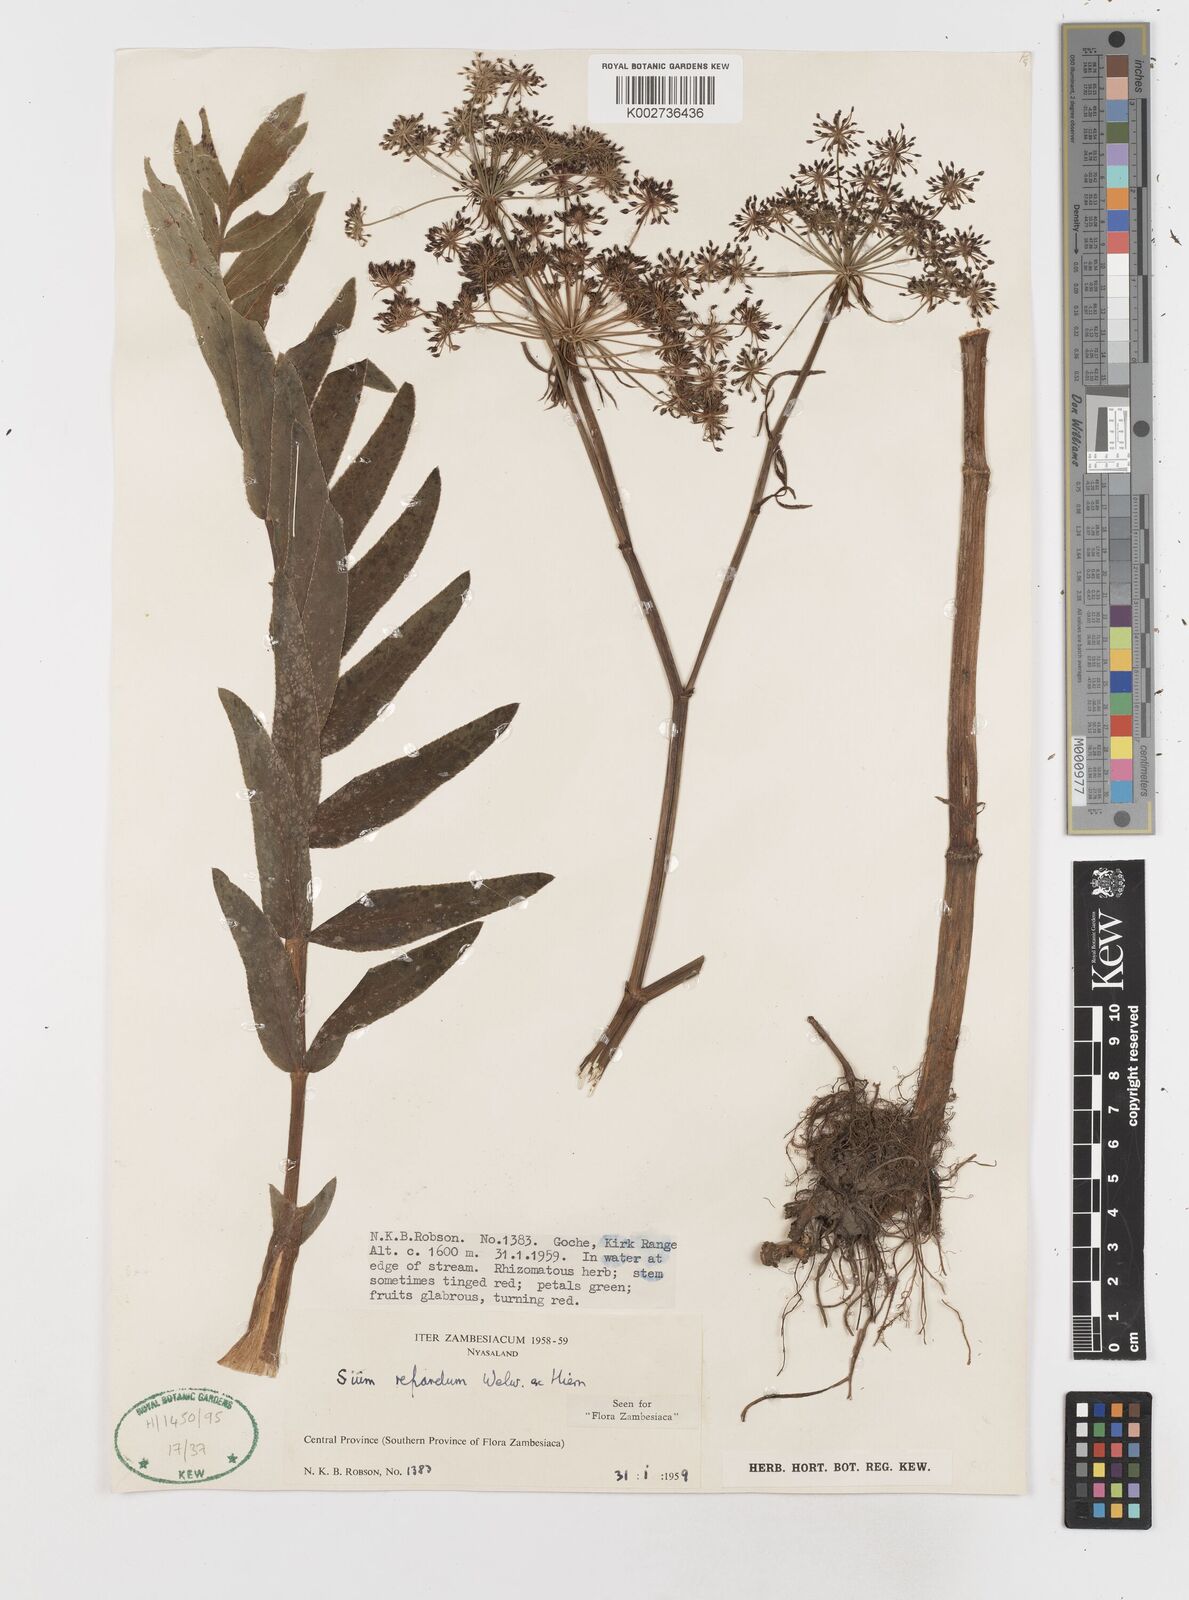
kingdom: Plantae
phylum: Tracheophyta
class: Magnoliopsida
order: Apiales
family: Apiaceae
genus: Berula
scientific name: Berula repanda
